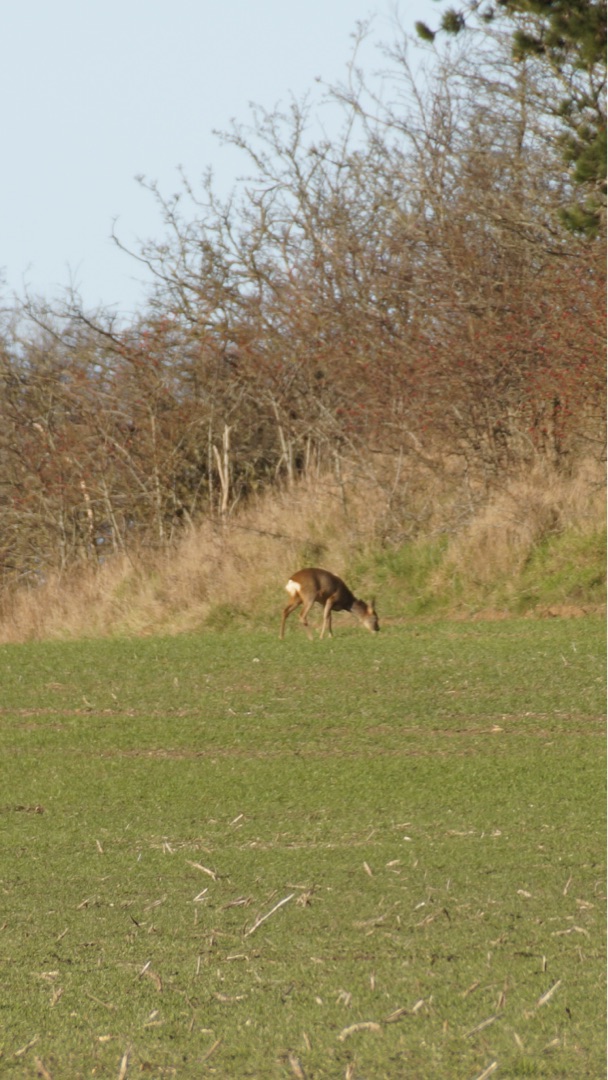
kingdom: Animalia
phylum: Chordata
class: Mammalia
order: Artiodactyla
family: Cervidae
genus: Capreolus
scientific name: Capreolus capreolus
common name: Rådyr
